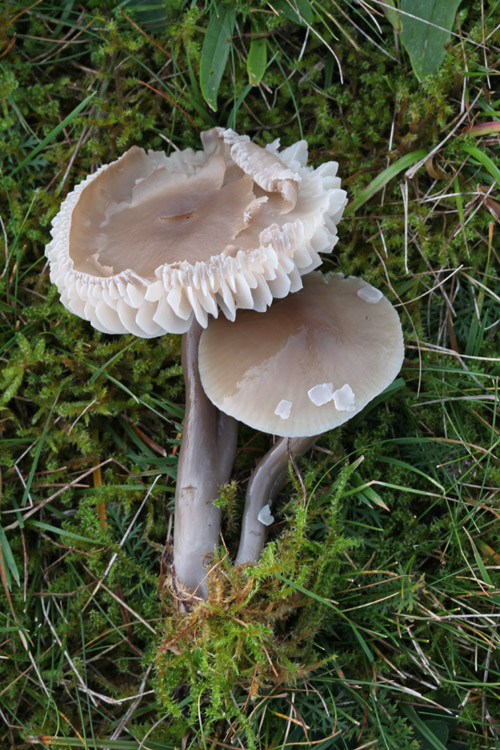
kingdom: Fungi
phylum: Basidiomycota
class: Agaricomycetes
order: Agaricales
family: Hygrophoraceae
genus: Gliophorus
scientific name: Gliophorus irrigatus
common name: slimet vokshat
